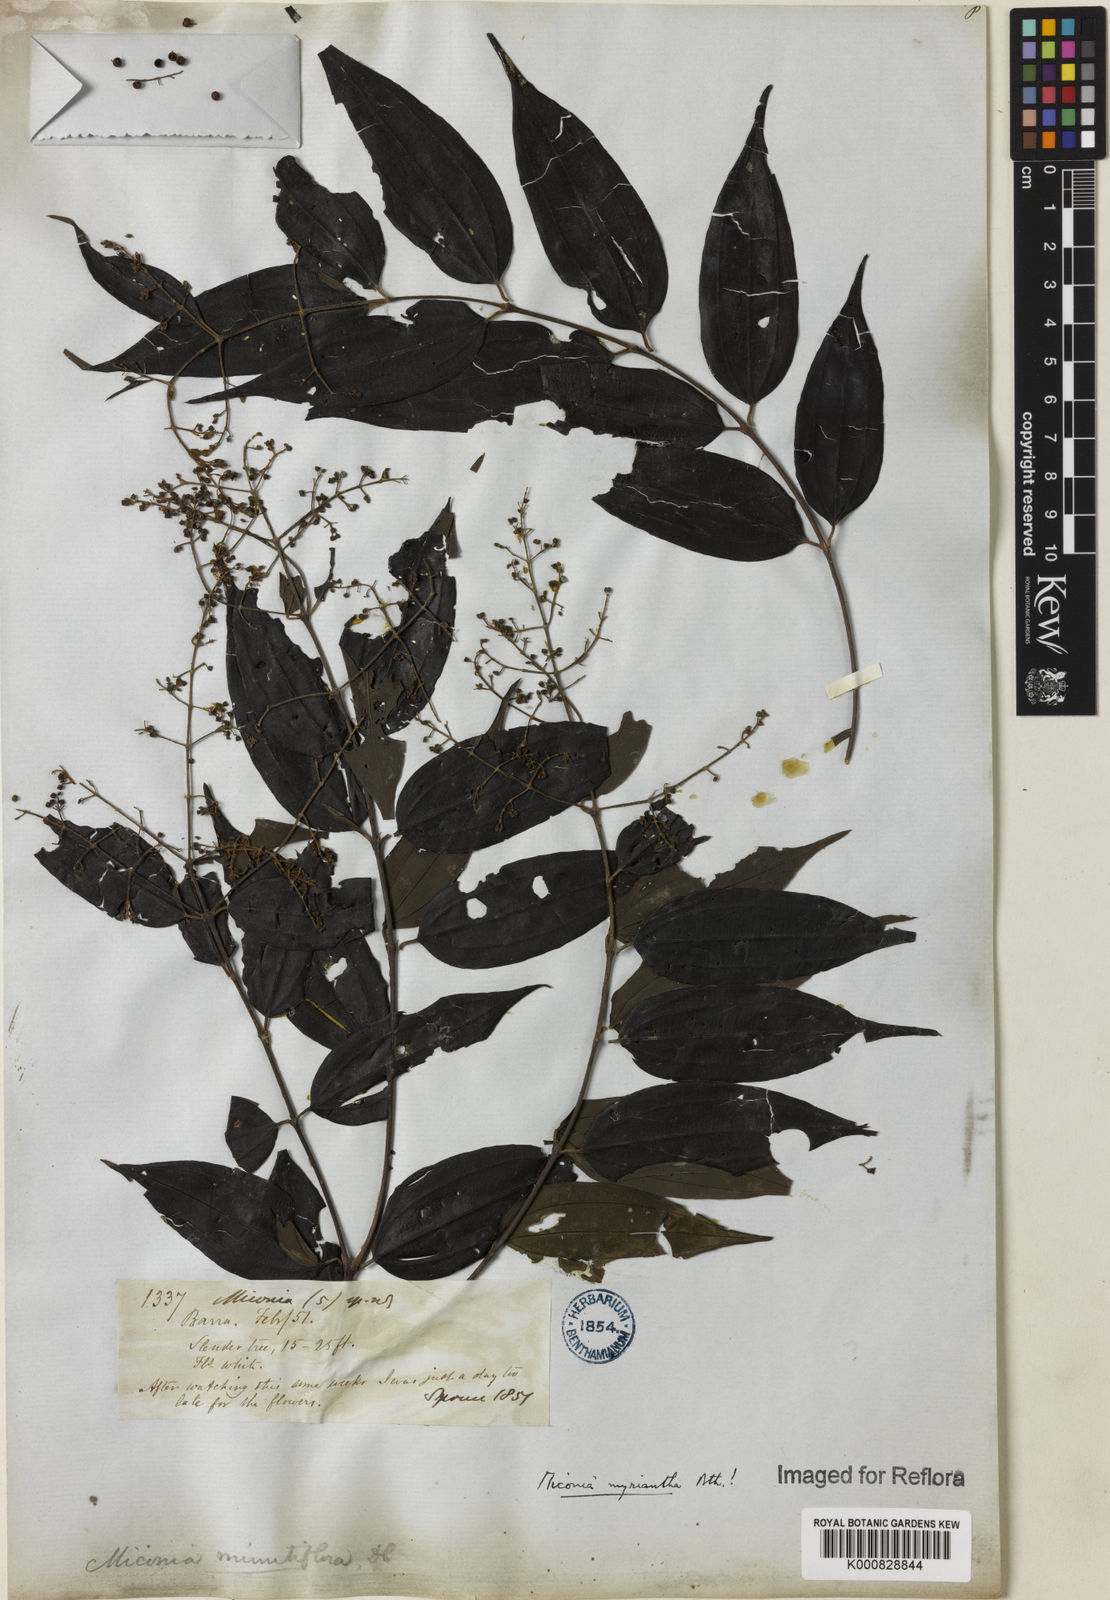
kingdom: Plantae
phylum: Tracheophyta
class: Magnoliopsida
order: Myrtales
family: Melastomataceae
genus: Miconia
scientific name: Miconia myriantha
